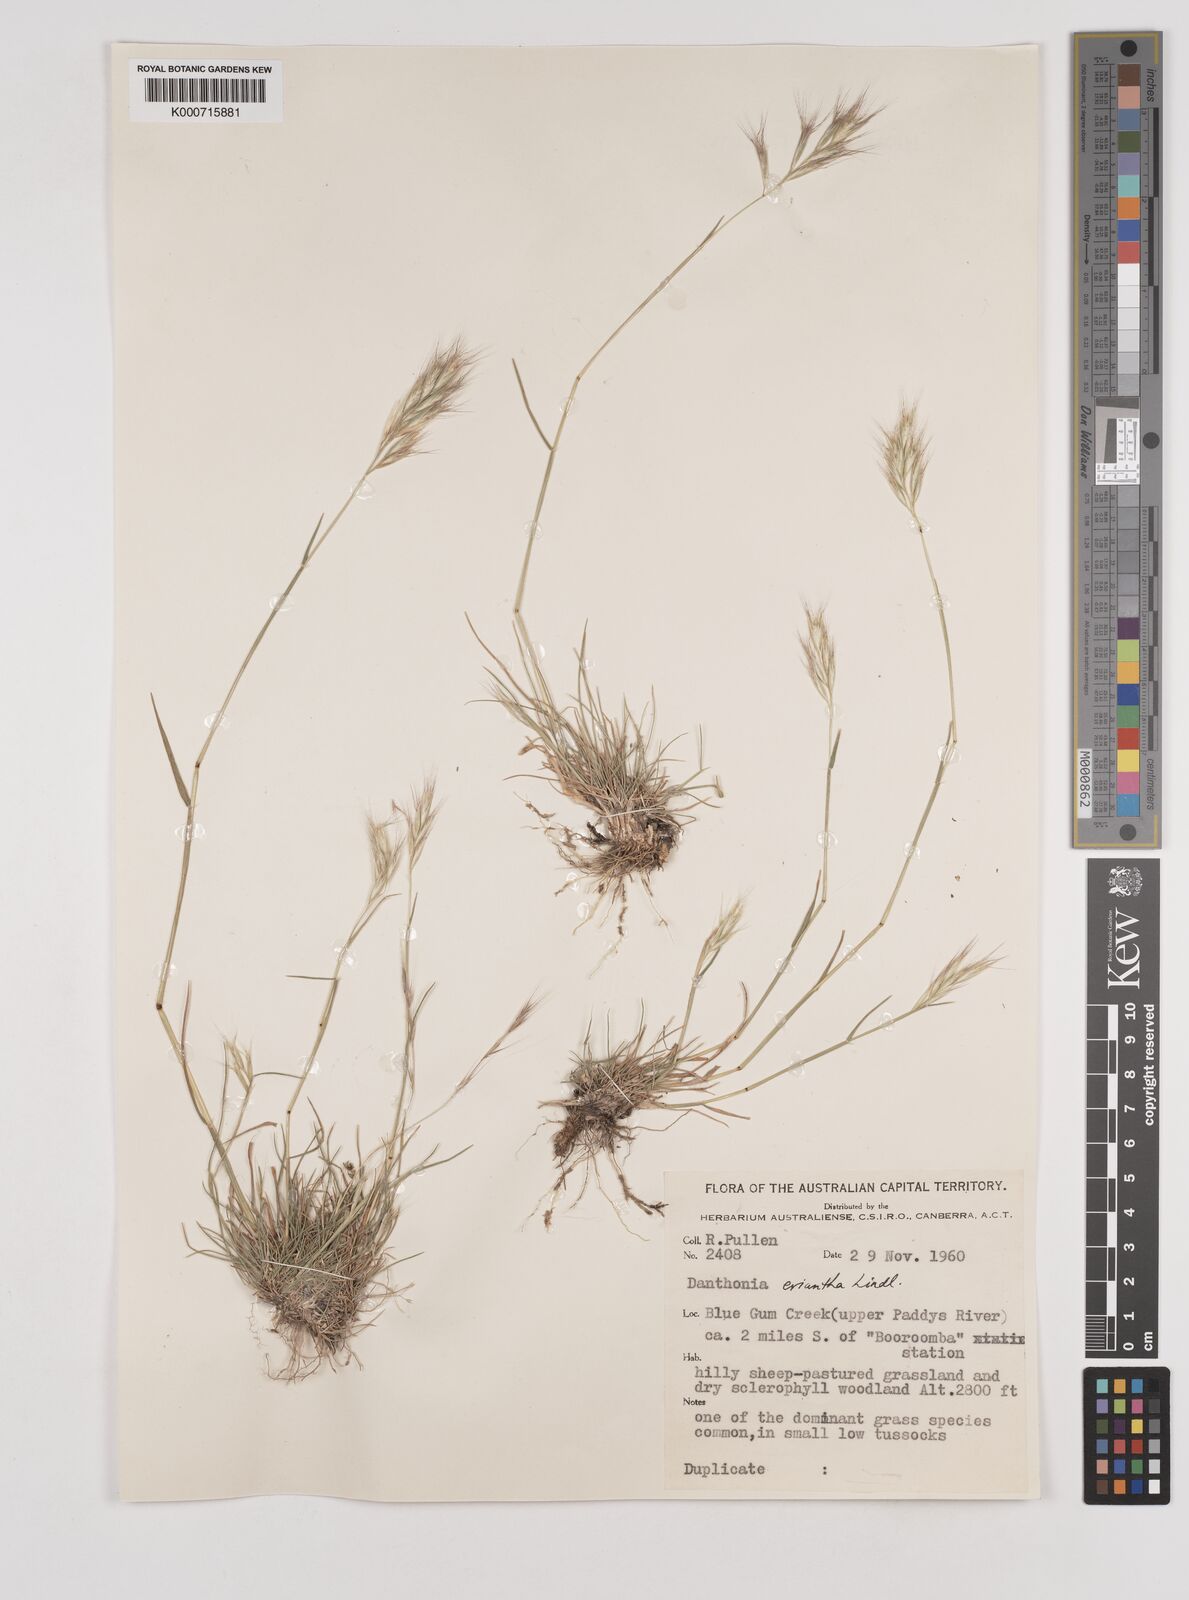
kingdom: Plantae
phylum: Tracheophyta
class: Liliopsida
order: Poales
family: Poaceae
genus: Rytidosperma
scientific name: Rytidosperma erianthum
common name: Hill wallaby grass
